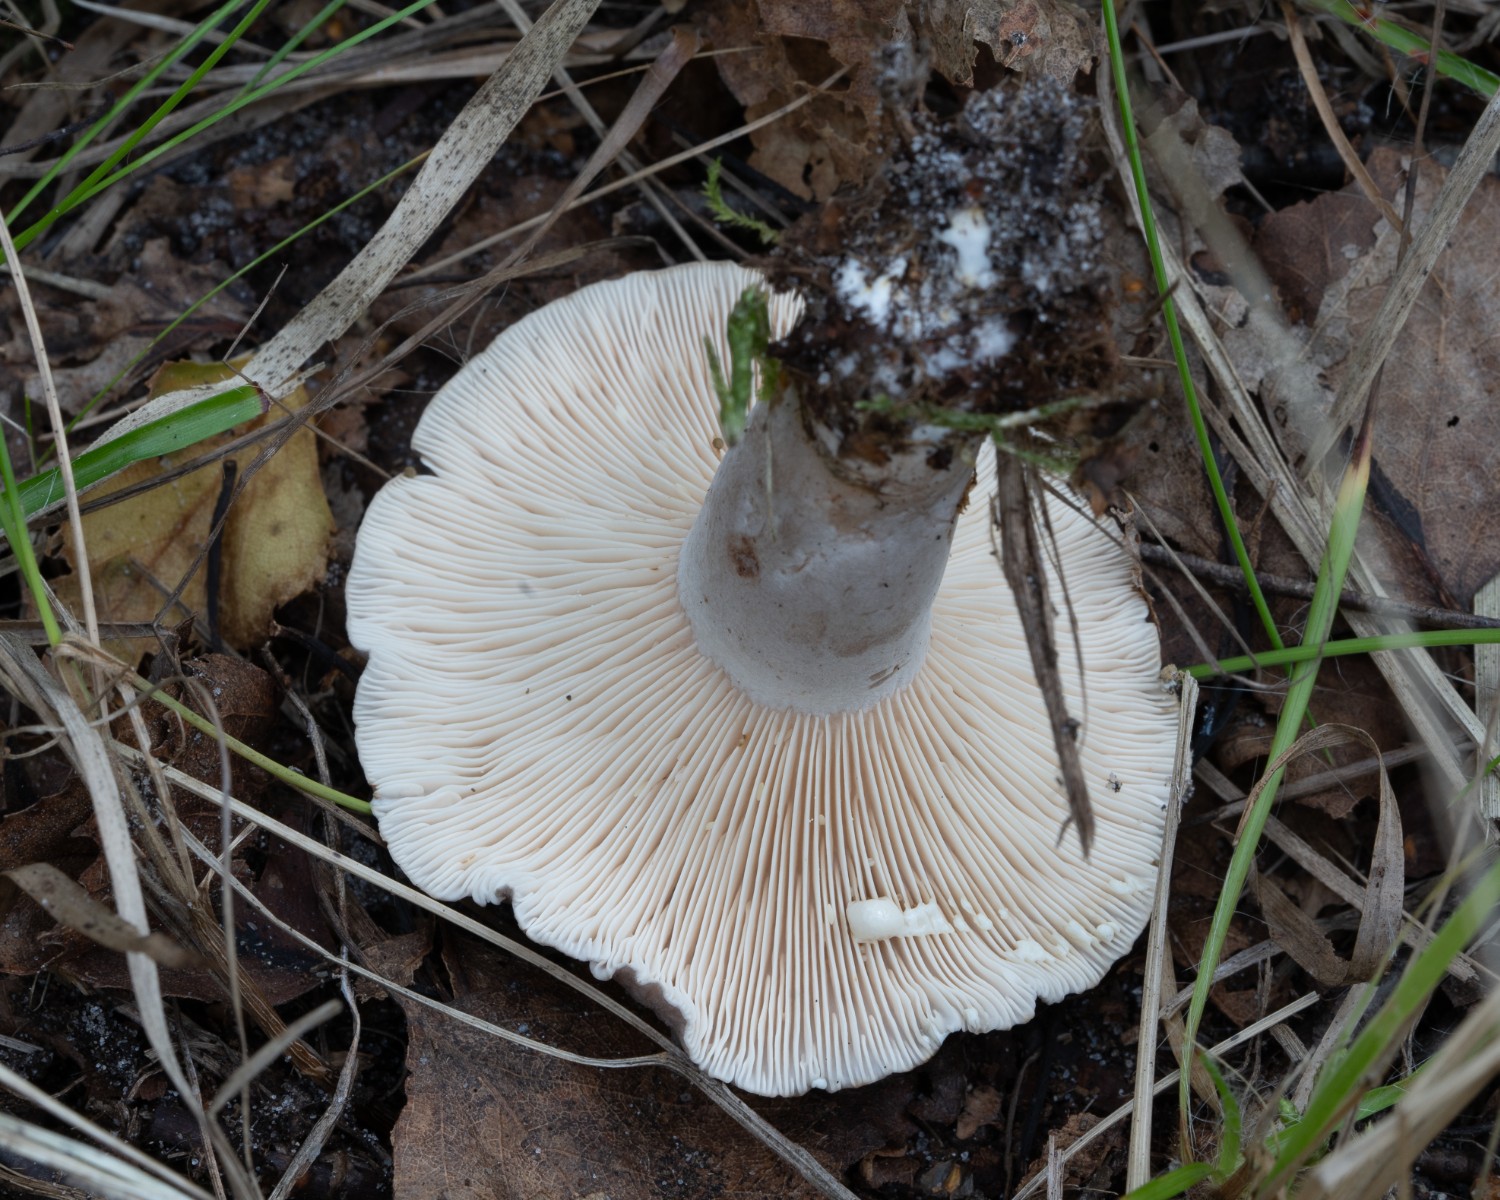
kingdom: Fungi
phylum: Basidiomycota
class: Agaricomycetes
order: Russulales
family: Russulaceae
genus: Lactarius
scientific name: Lactarius vietus
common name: violetgrå mælkehat
